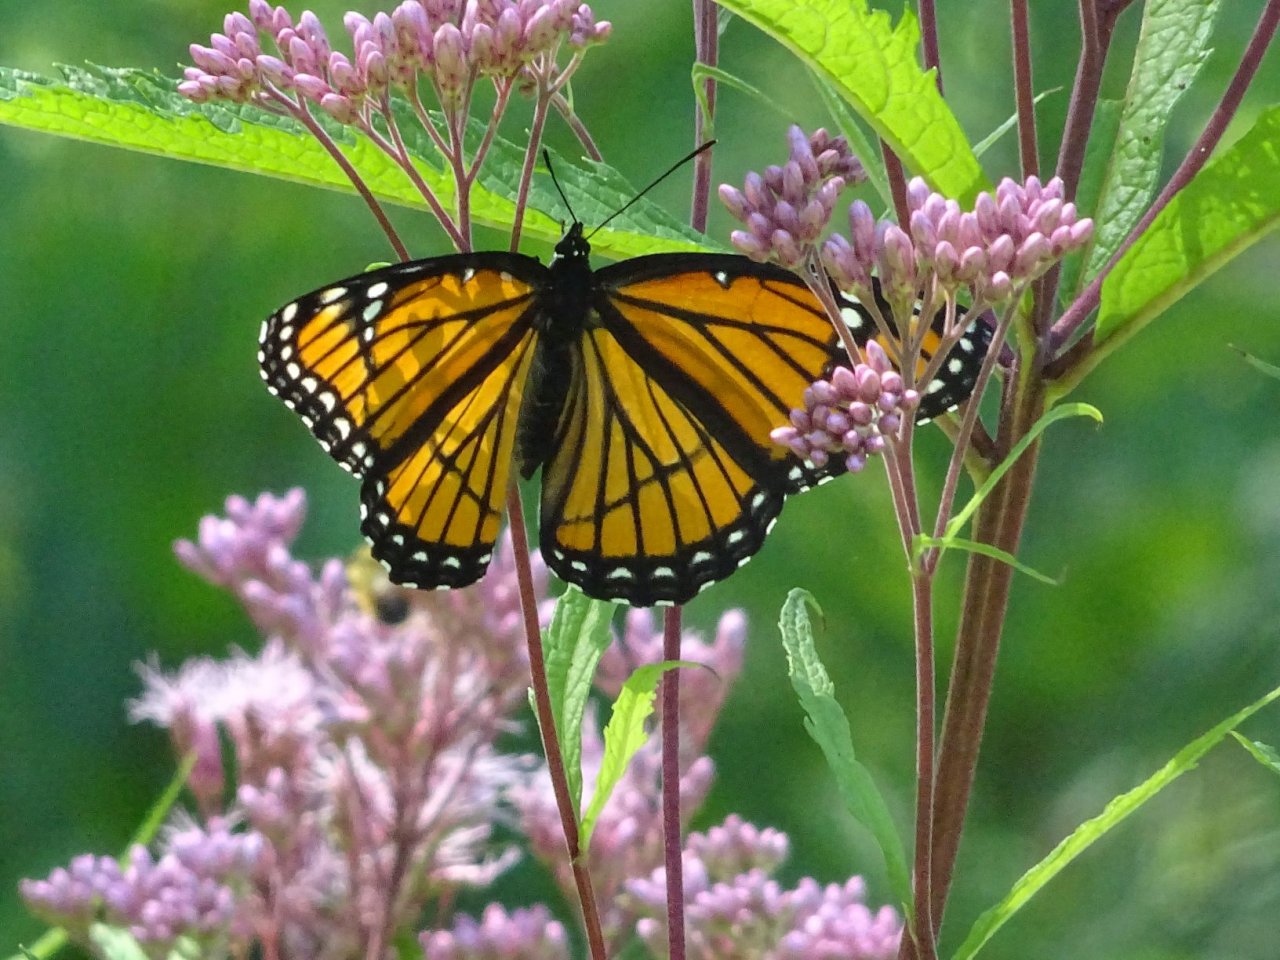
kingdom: Animalia
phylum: Arthropoda
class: Insecta
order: Lepidoptera
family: Nymphalidae
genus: Limenitis
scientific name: Limenitis archippus
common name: Viceroy
